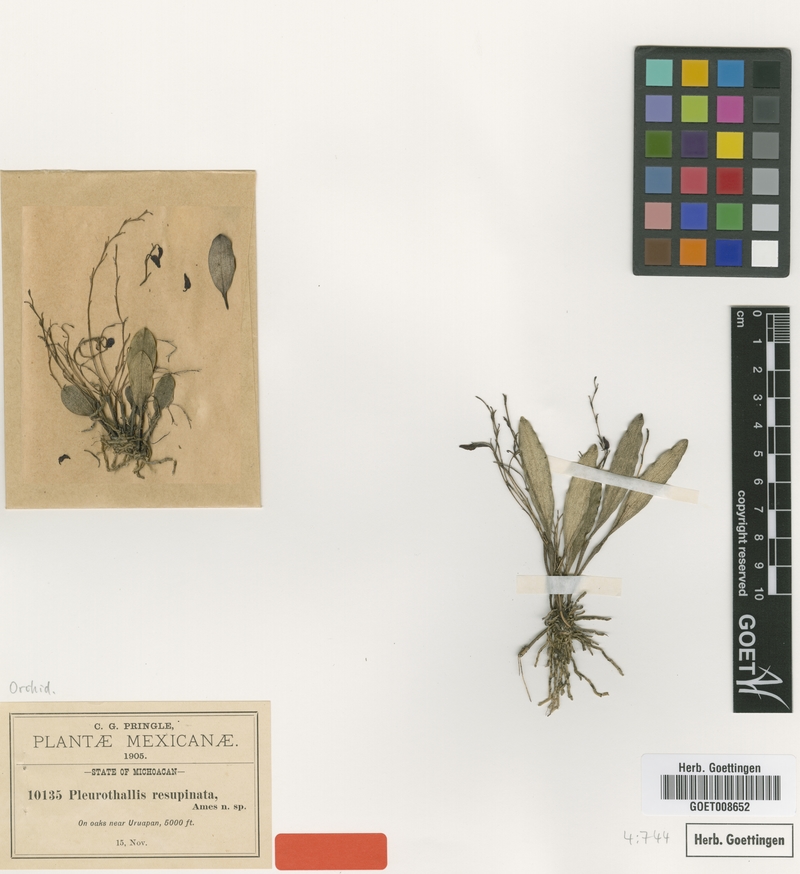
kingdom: Plantae
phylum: Tracheophyta
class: Liliopsida
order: Asparagales
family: Orchidaceae
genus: Stelis
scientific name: Stelis resupinata
